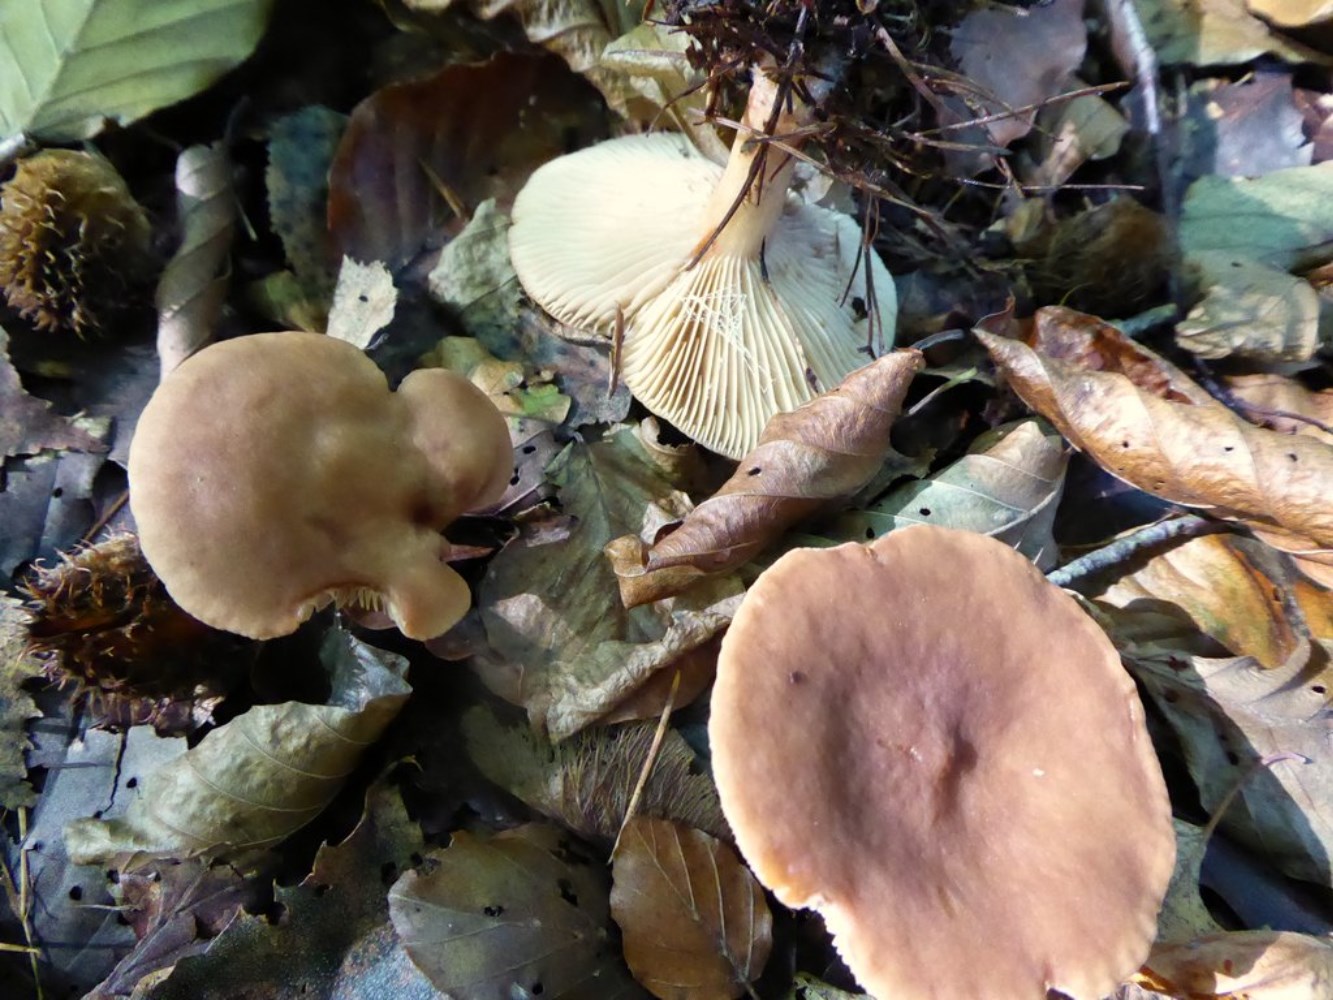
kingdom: Fungi
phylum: Basidiomycota
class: Agaricomycetes
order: Russulales
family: Russulaceae
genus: Lactarius
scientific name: Lactarius subdulcis
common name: sødlig mælkehat
